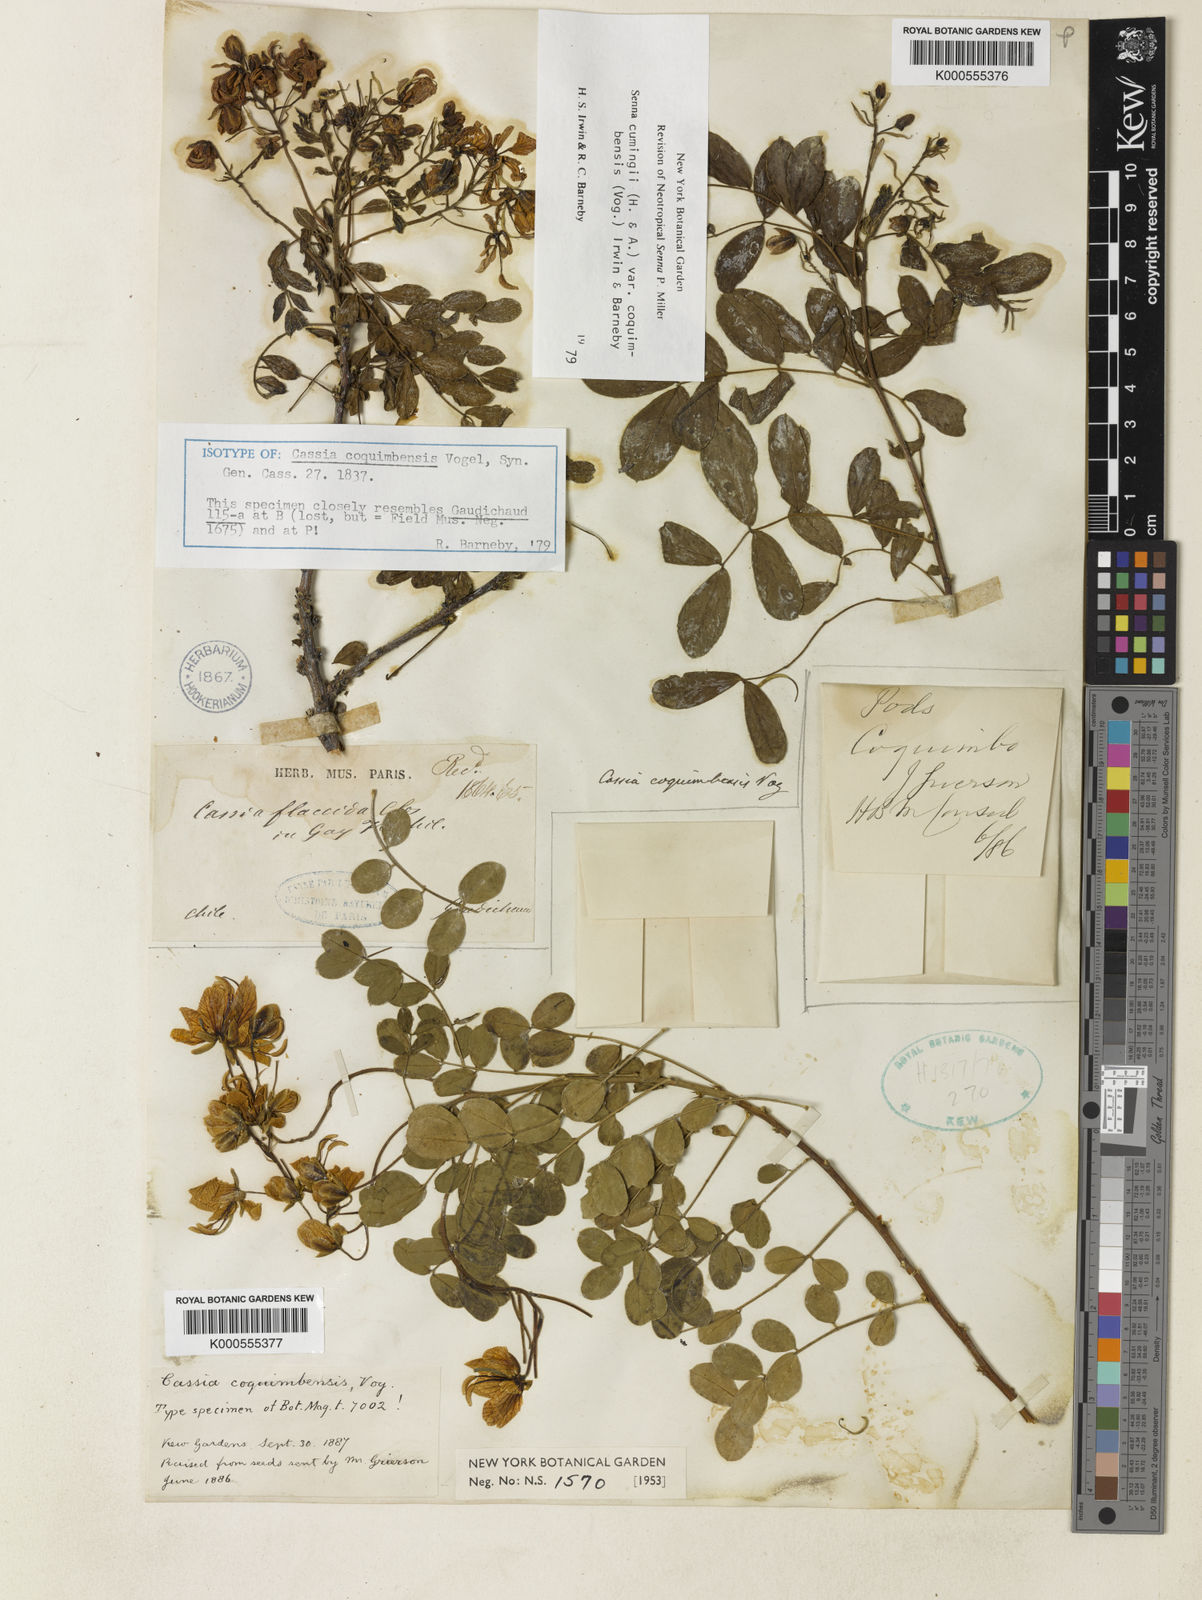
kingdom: Plantae
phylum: Tracheophyta
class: Magnoliopsida
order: Fabales
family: Fabaceae
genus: Senna
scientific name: Senna cumingii
